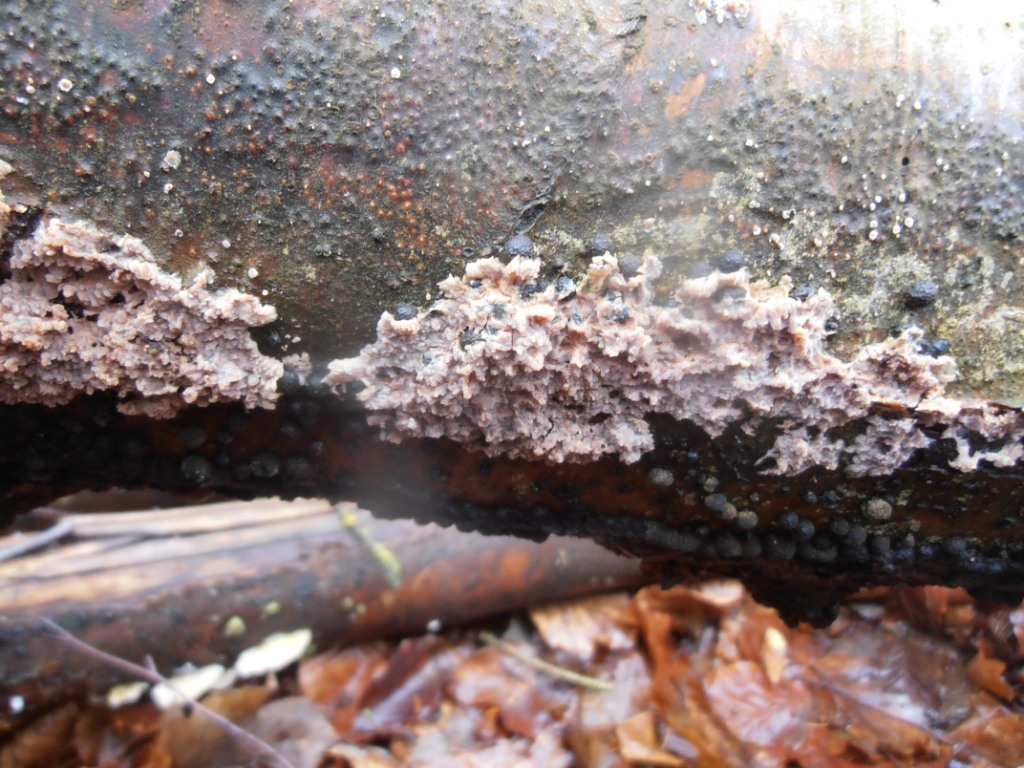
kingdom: Fungi
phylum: Basidiomycota
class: Agaricomycetes
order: Polyporales
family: Meruliaceae
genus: Phlebia
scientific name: Phlebia radiata
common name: stråle-åresvamp
